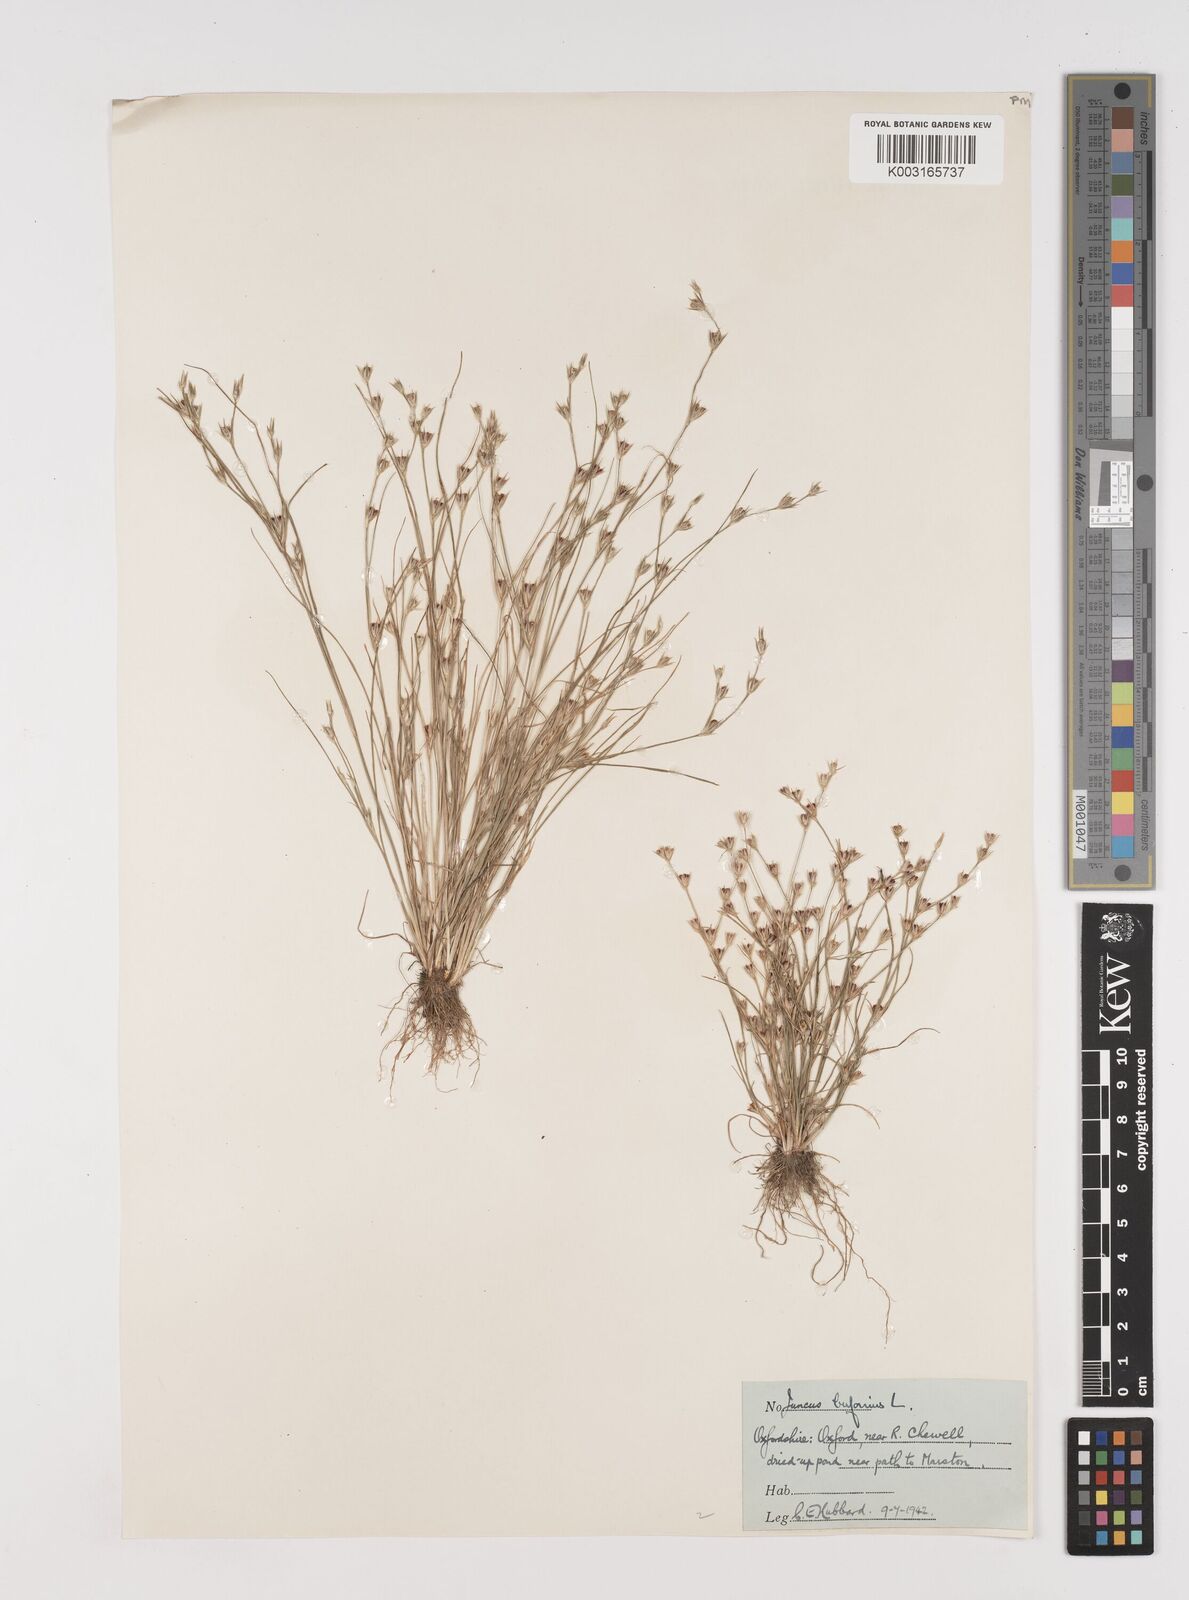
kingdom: Plantae
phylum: Tracheophyta
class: Liliopsida
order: Poales
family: Juncaceae
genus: Juncus
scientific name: Juncus bufonius
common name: Toad rush
